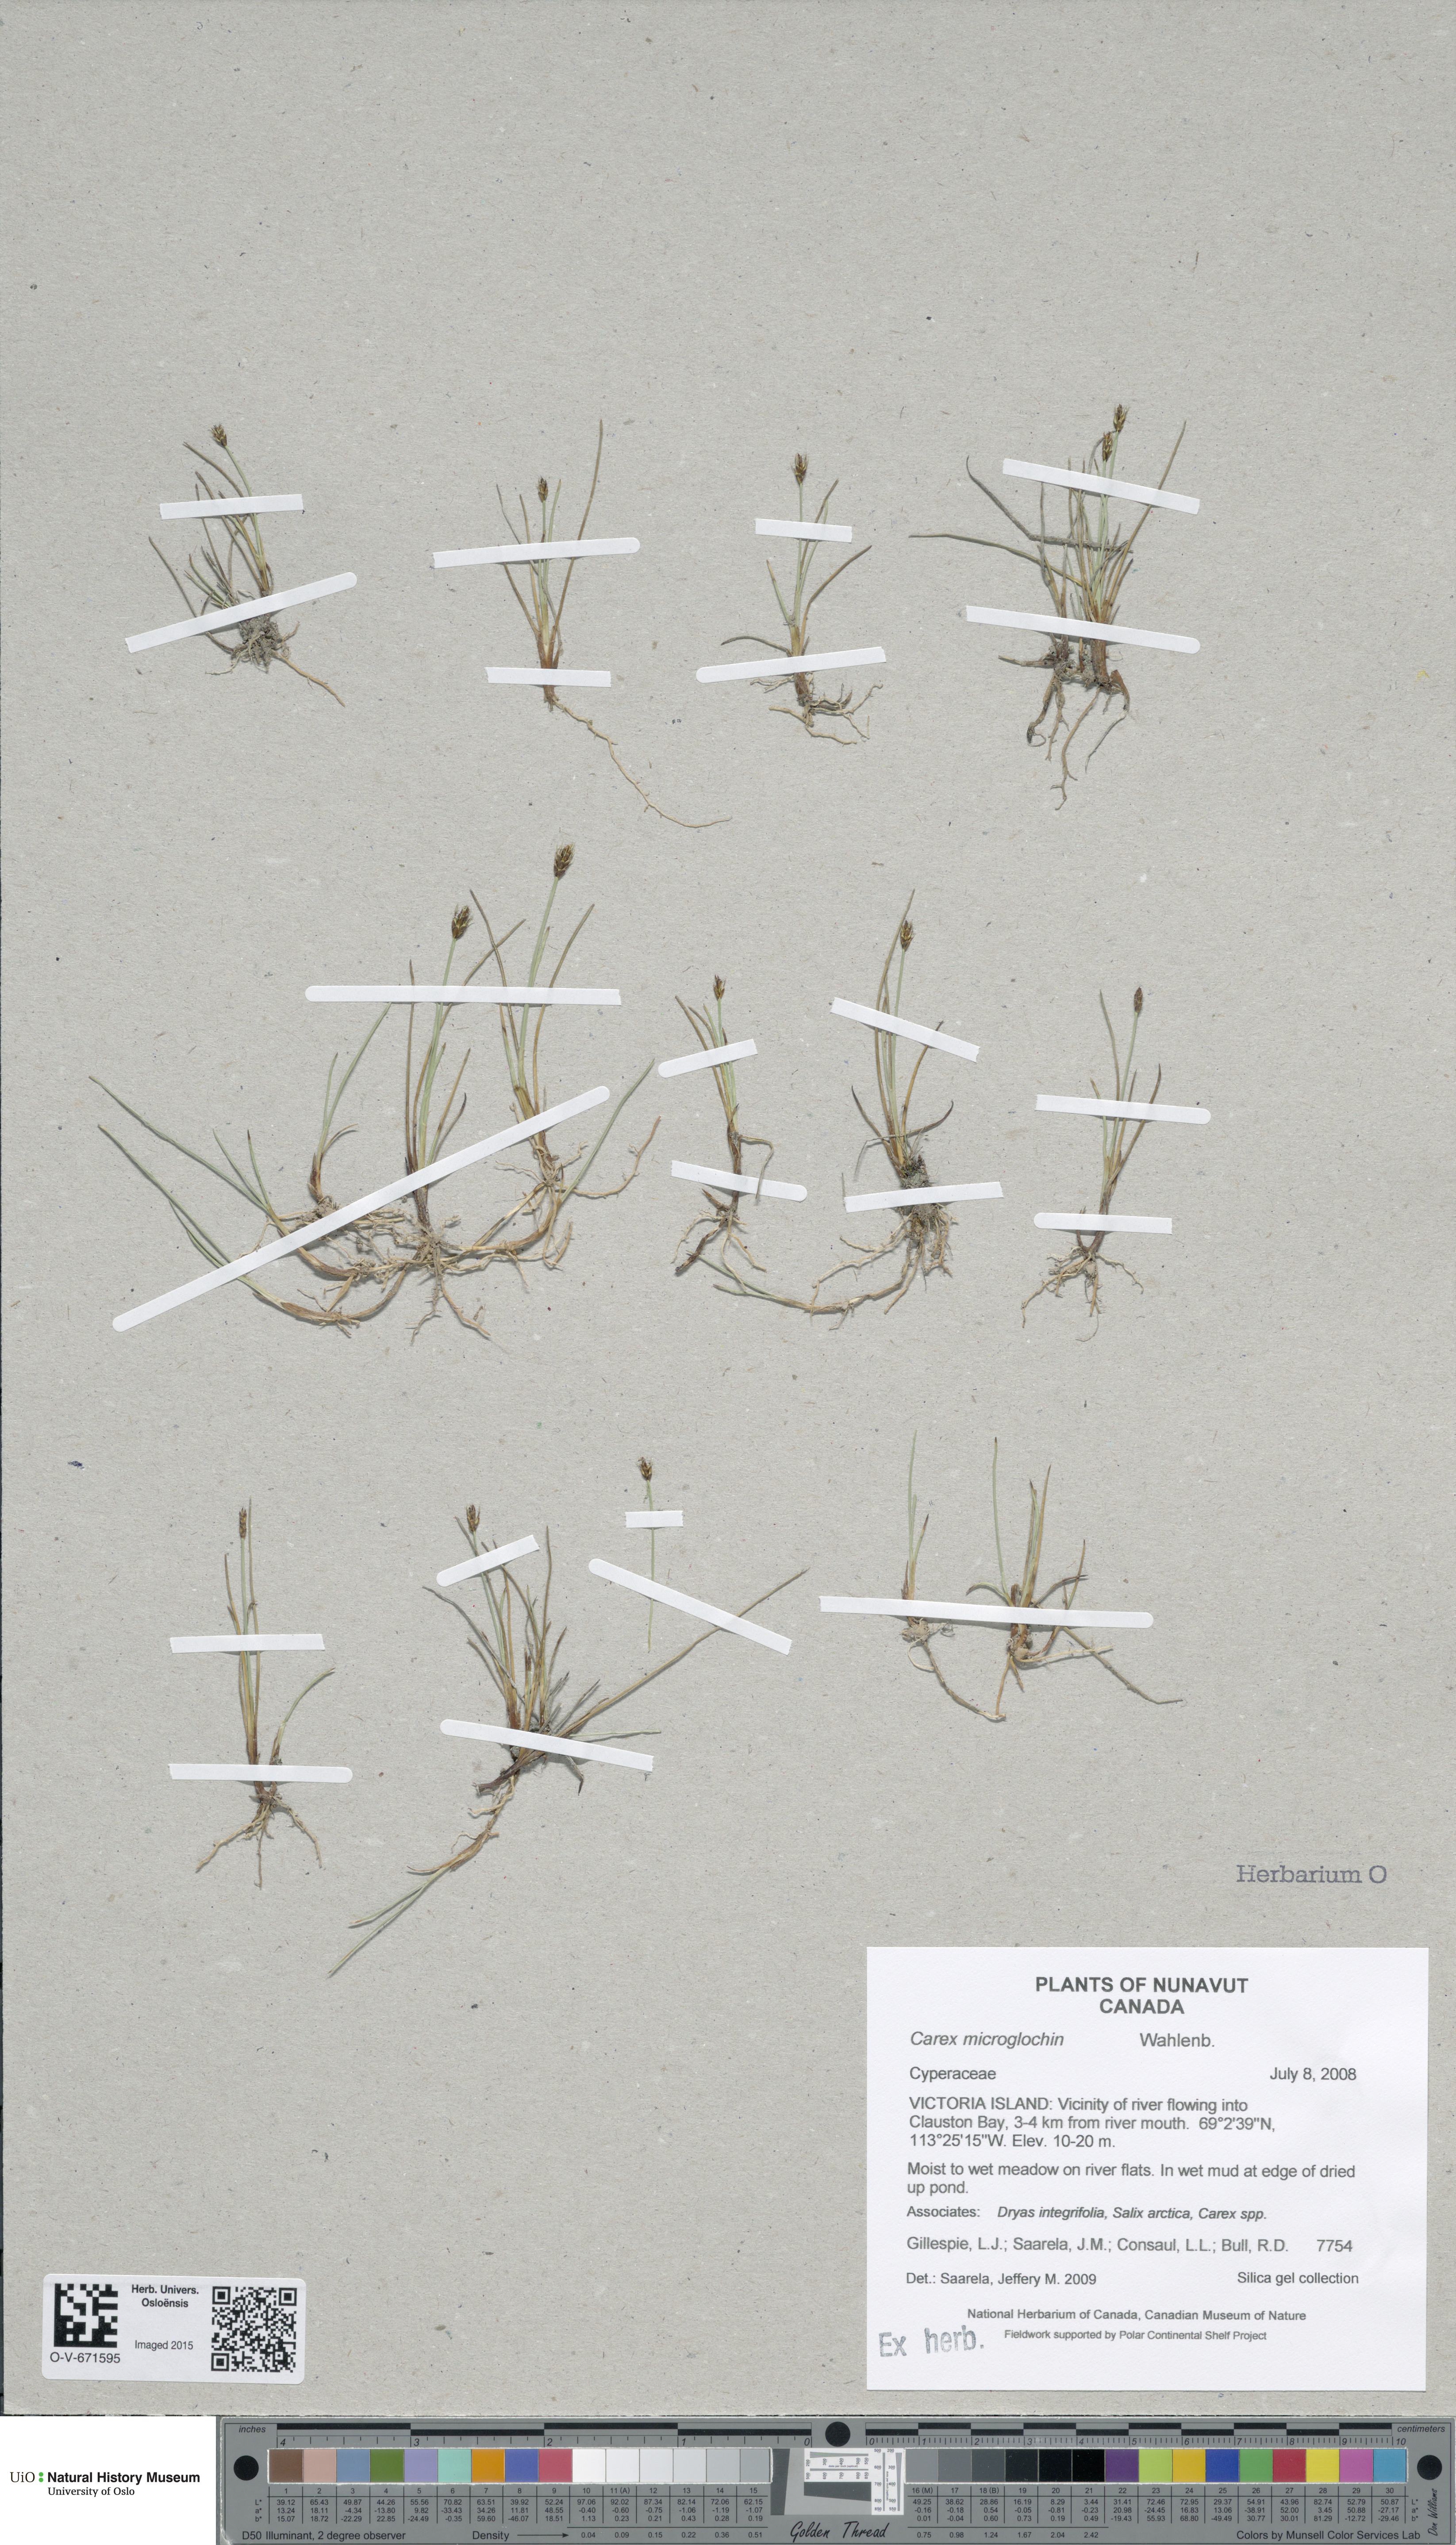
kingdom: Plantae
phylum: Tracheophyta
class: Liliopsida
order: Poales
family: Cyperaceae
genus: Carex
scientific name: Carex microglochin
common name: Bristle sedge
